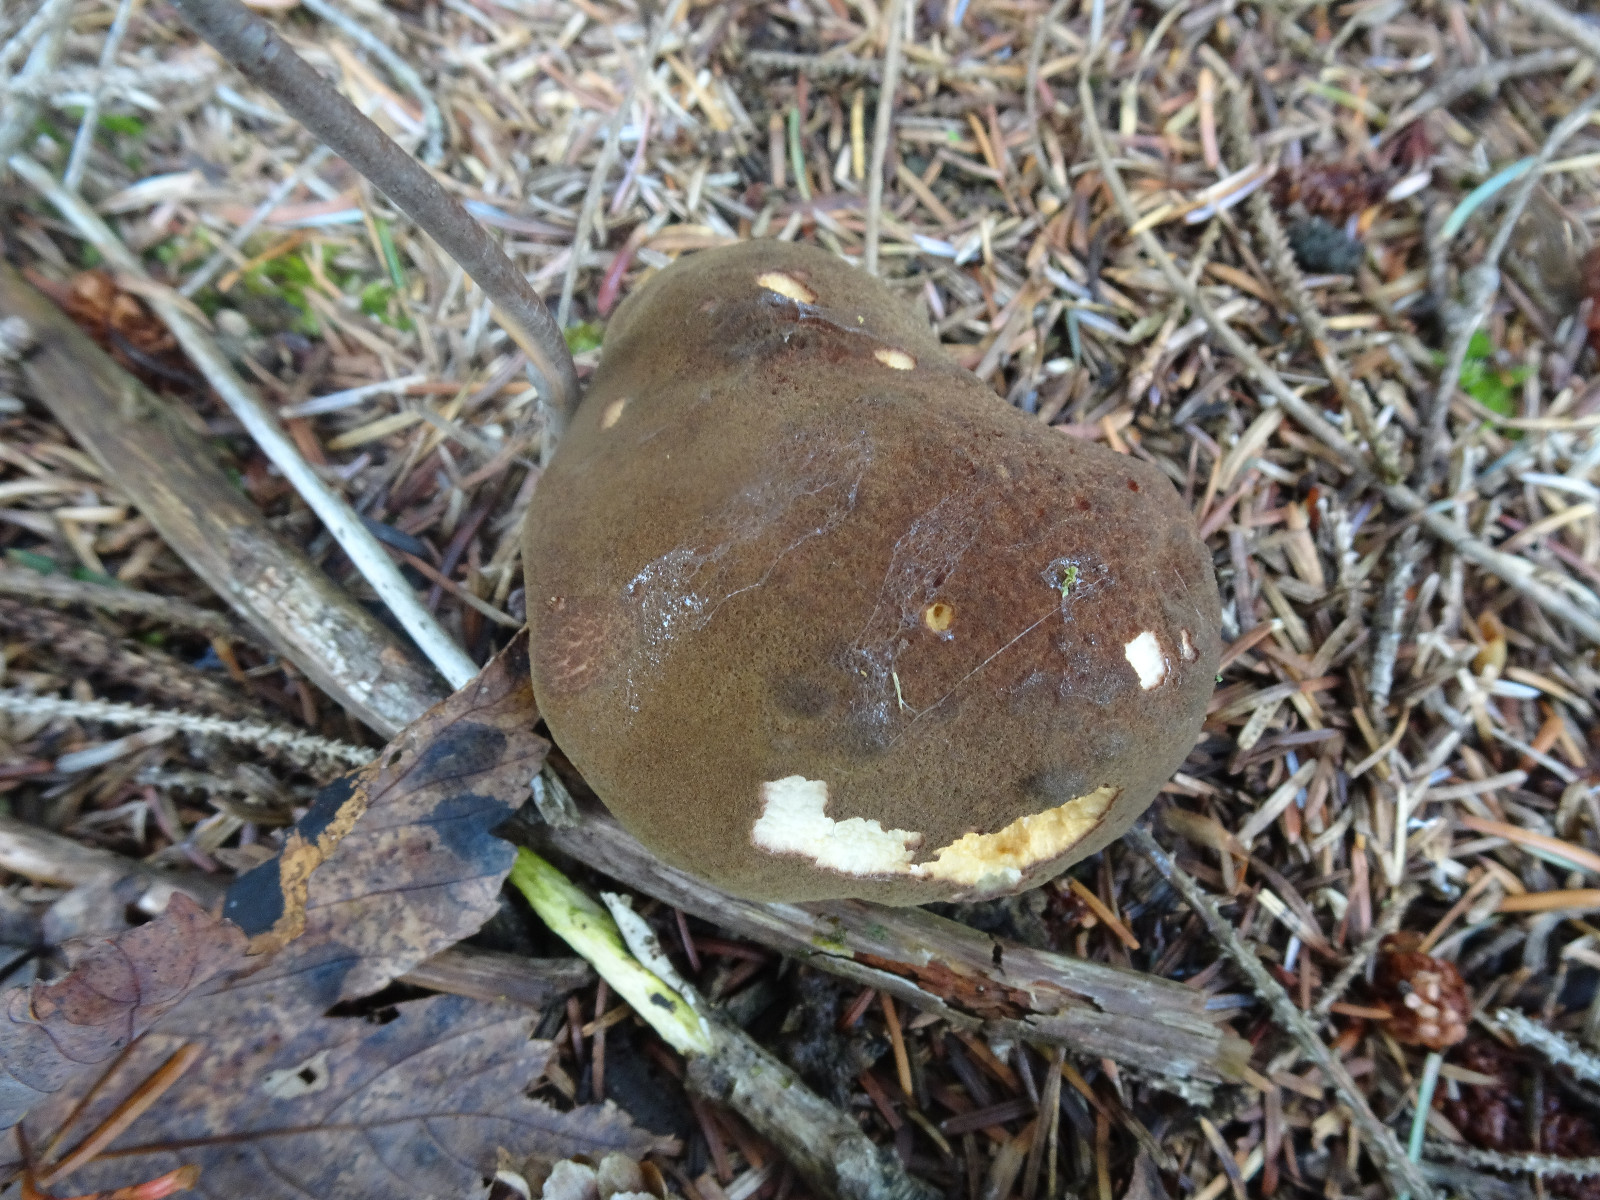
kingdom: Fungi
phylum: Basidiomycota
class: Agaricomycetes
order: Boletales
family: Boletaceae
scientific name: Boletaceae
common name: rørhatfamilien
